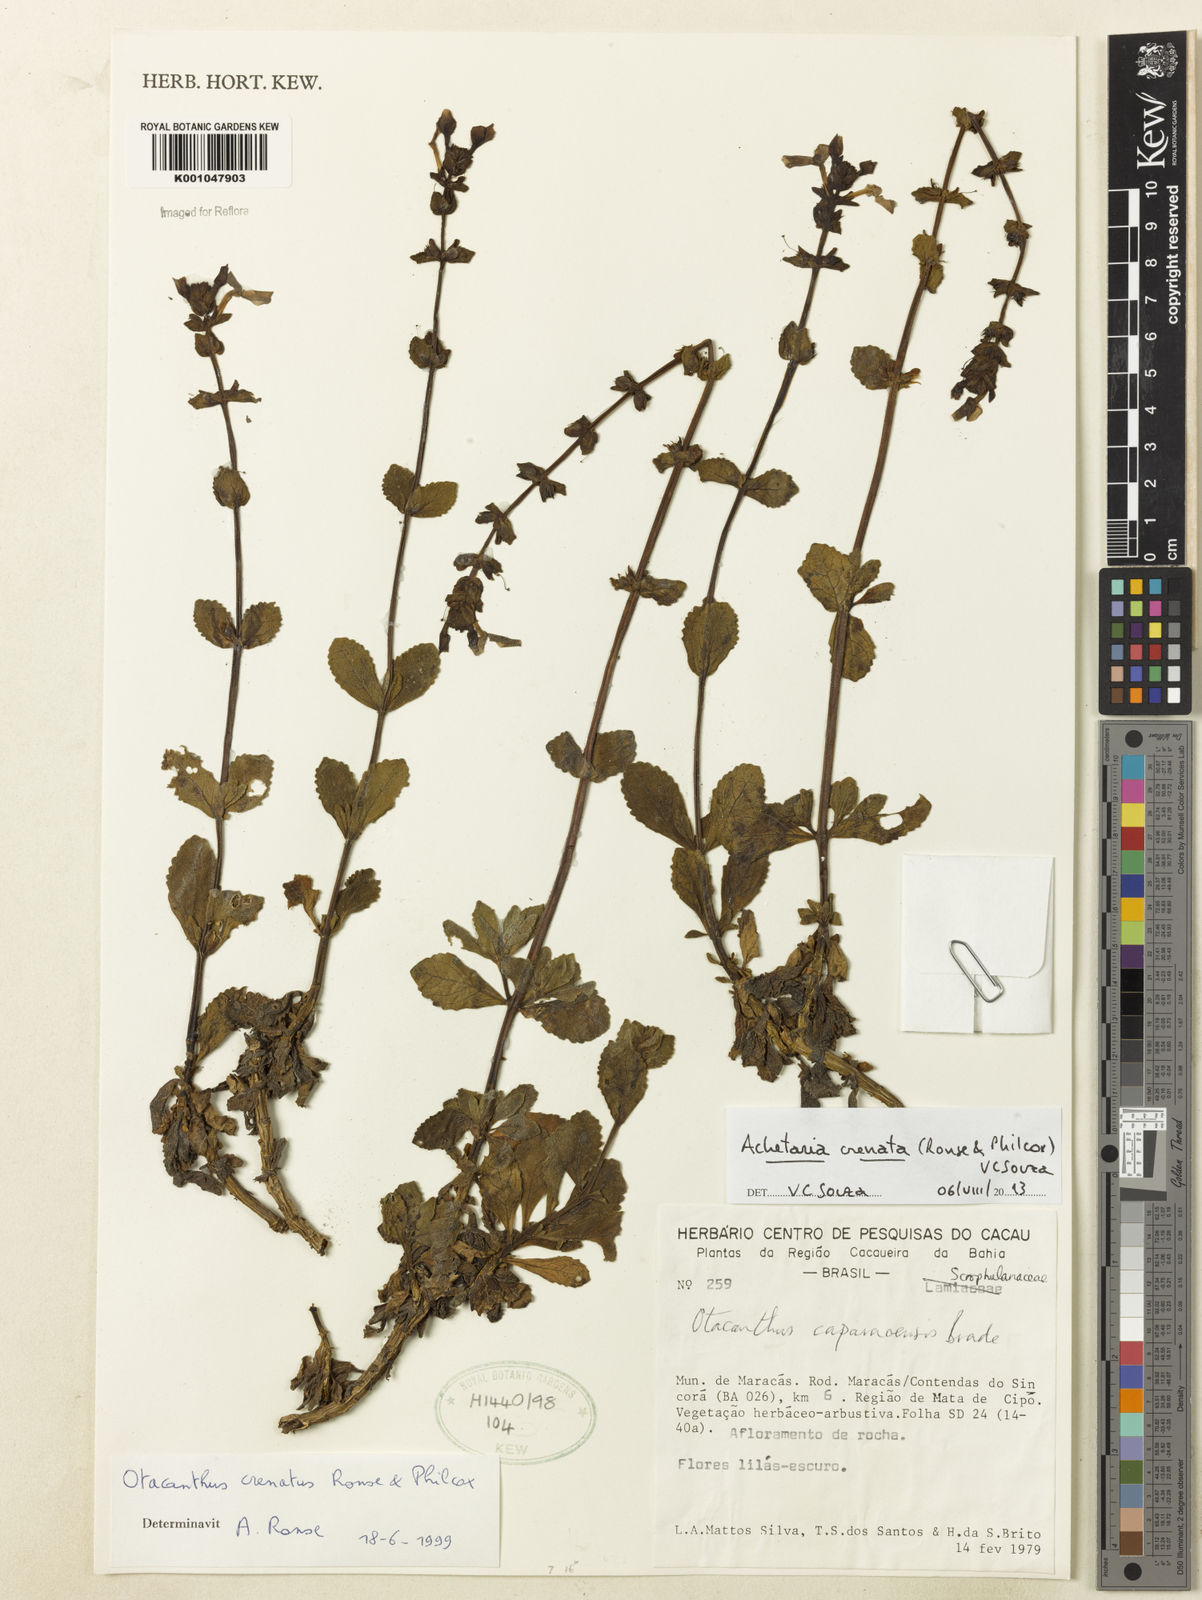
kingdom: Plantae
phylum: Tracheophyta
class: Magnoliopsida
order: Lamiales
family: Plantaginaceae
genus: Matourea
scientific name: Matourea crenata
